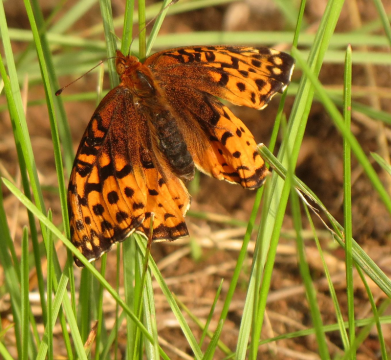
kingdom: Animalia
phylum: Arthropoda
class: Insecta
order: Lepidoptera
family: Nymphalidae
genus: Speyeria
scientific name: Speyeria cybele
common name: Great Spangled Fritillary
